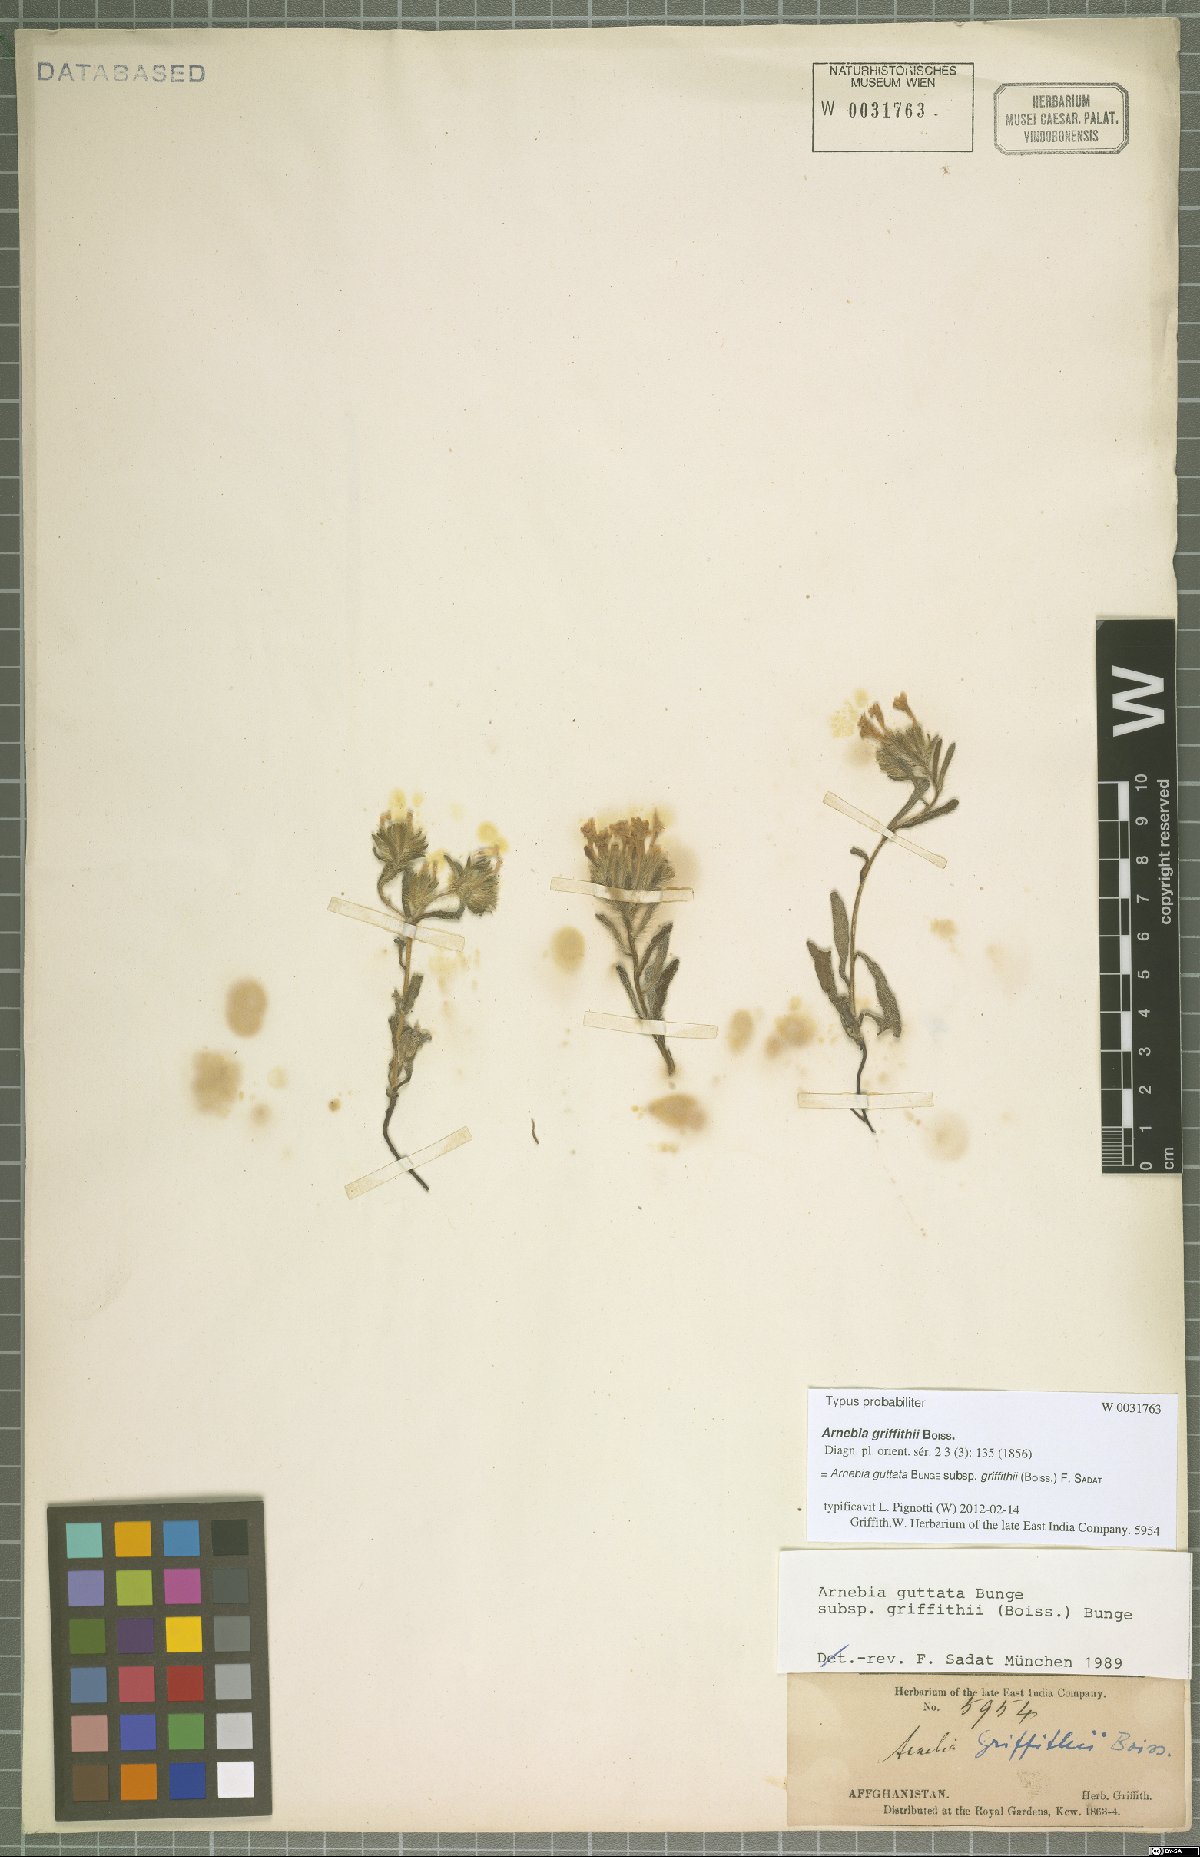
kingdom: Plantae
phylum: Tracheophyta
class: Magnoliopsida
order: Boraginales
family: Boraginaceae
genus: Arnebia
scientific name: Arnebia guttata
